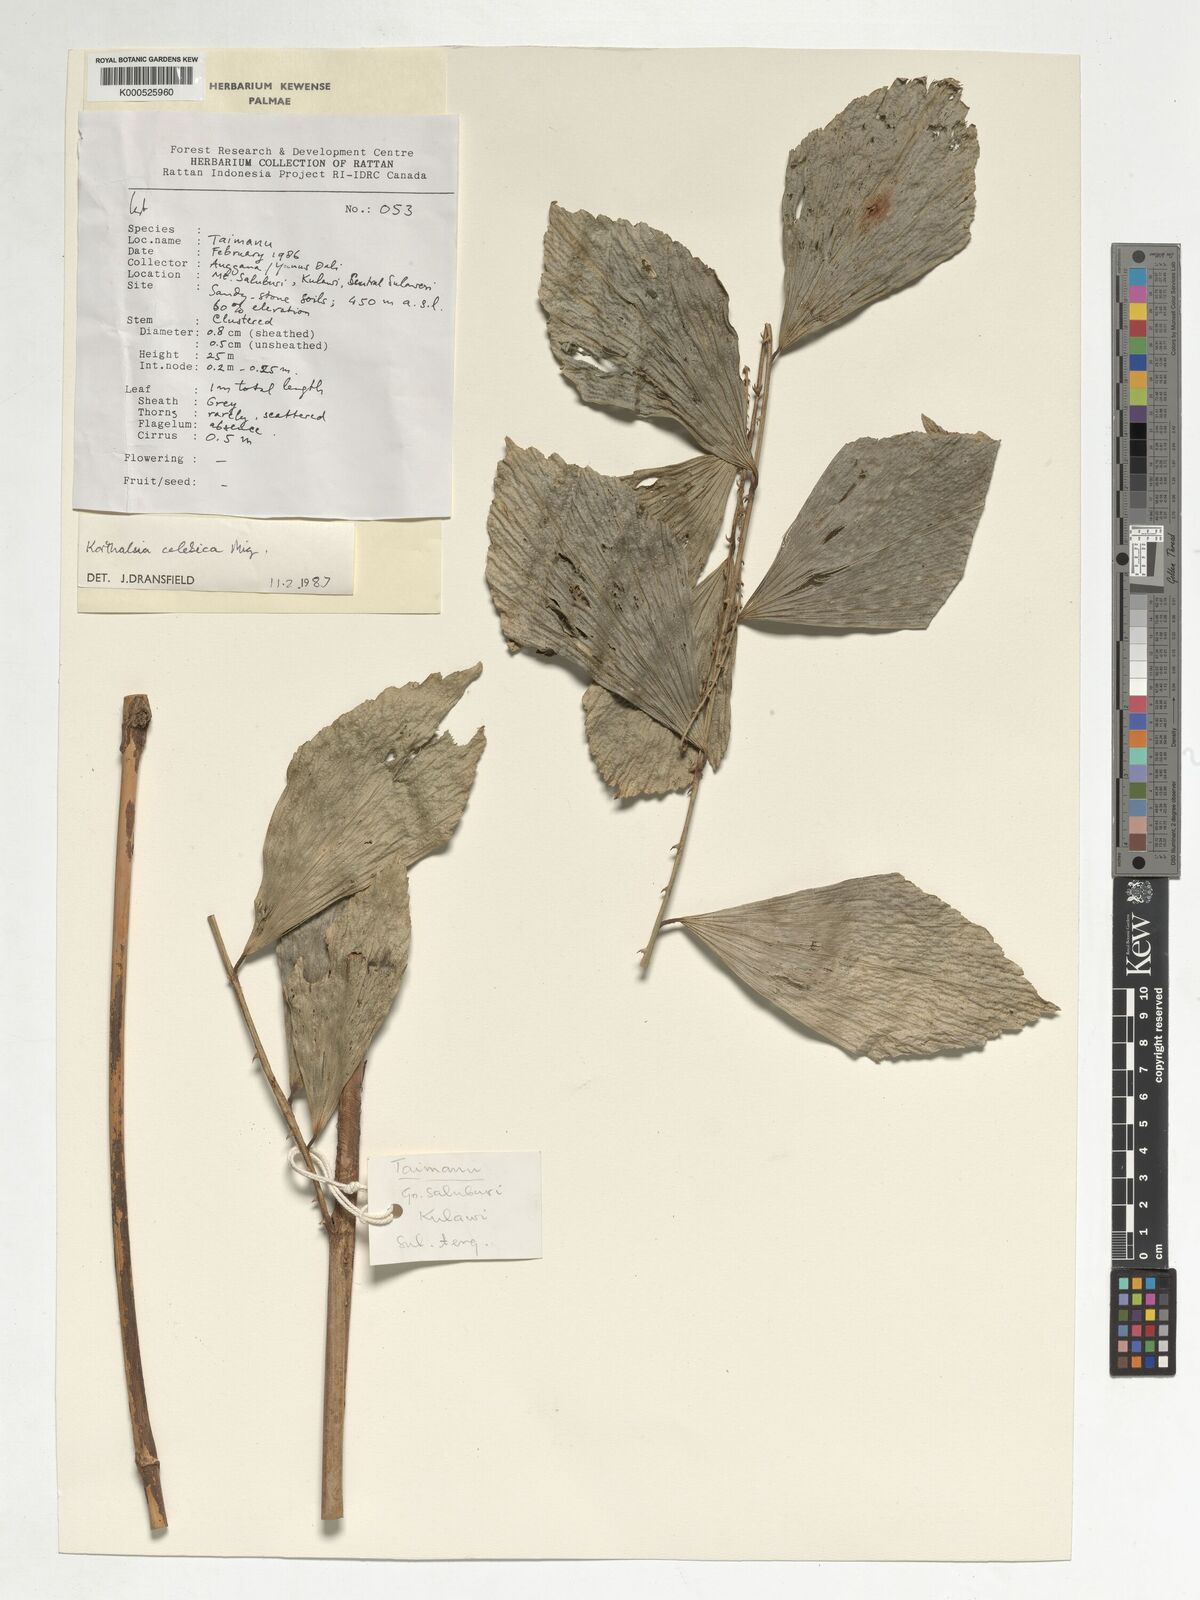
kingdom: Plantae
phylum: Tracheophyta
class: Liliopsida
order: Arecales
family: Arecaceae
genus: Korthalsia
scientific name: Korthalsia celebica
